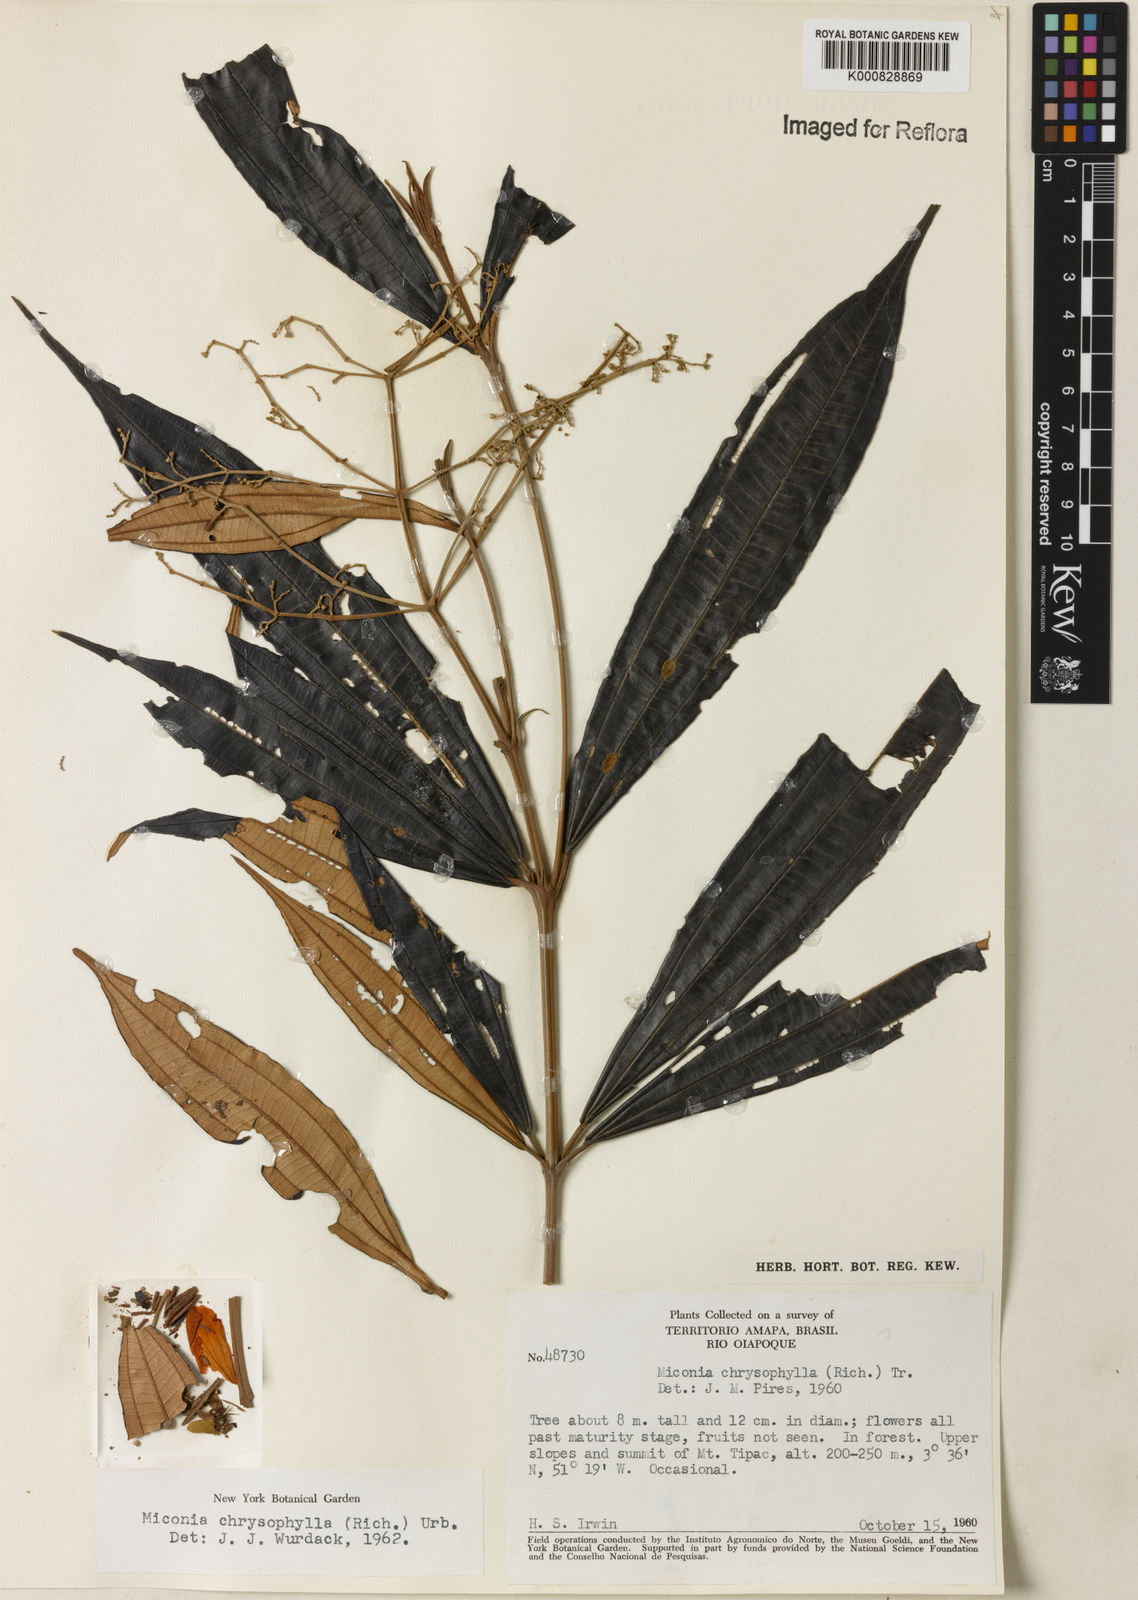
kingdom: Plantae
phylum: Tracheophyta
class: Magnoliopsida
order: Myrtales
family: Melastomataceae
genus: Miconia
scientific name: Miconia chrysophylla
